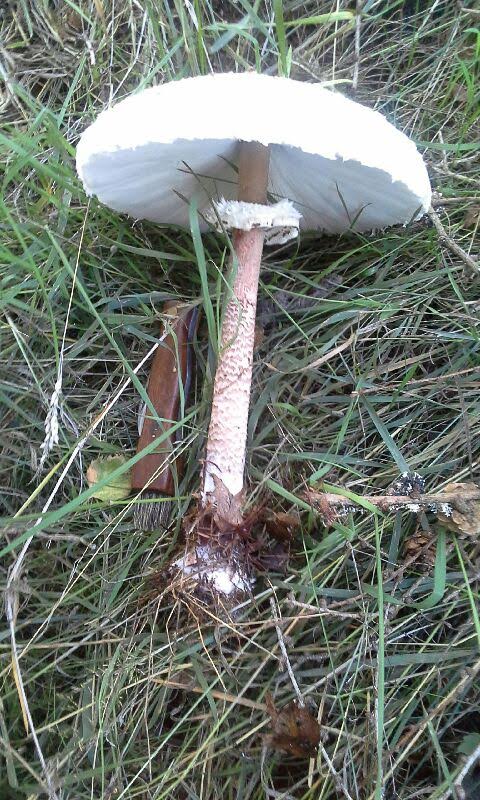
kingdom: Fungi
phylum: Basidiomycota
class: Agaricomycetes
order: Agaricales
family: Agaricaceae
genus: Macrolepiota
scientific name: Macrolepiota procera
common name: stor kæmpeparasolhat
